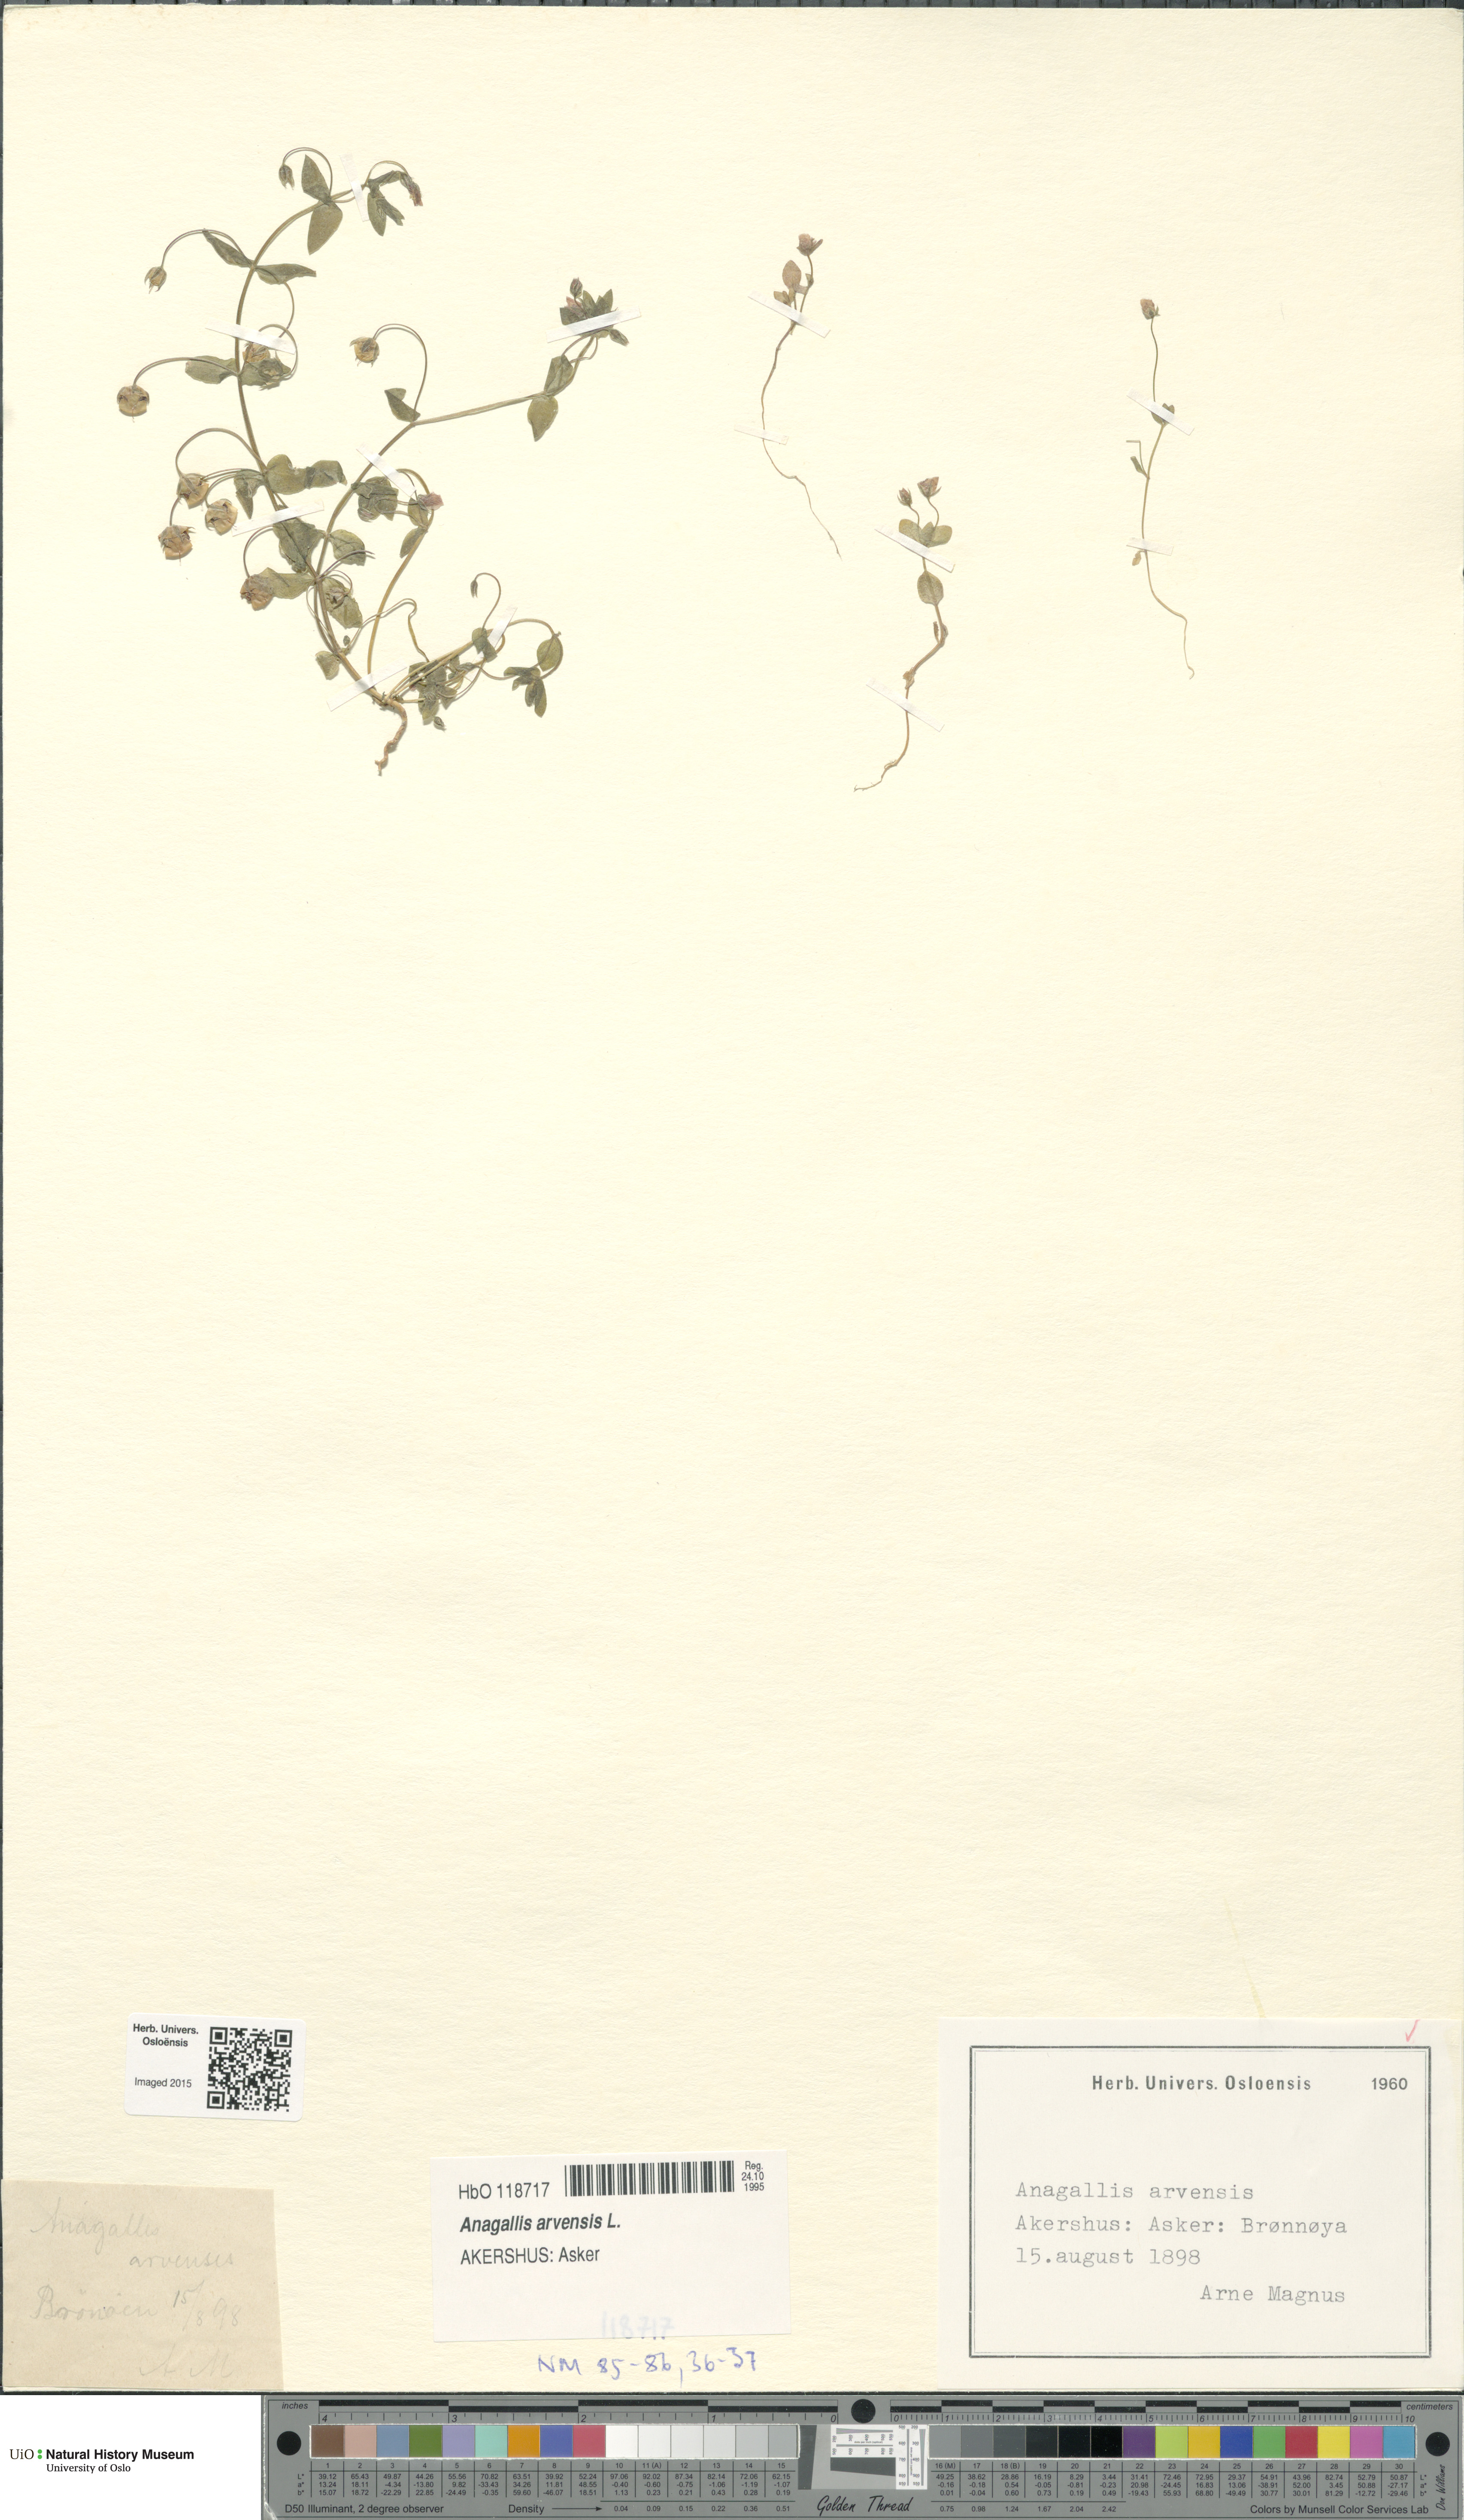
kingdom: Plantae
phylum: Tracheophyta
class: Magnoliopsida
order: Ericales
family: Primulaceae
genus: Lysimachia
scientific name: Lysimachia arvensis
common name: Scarlet pimpernel
